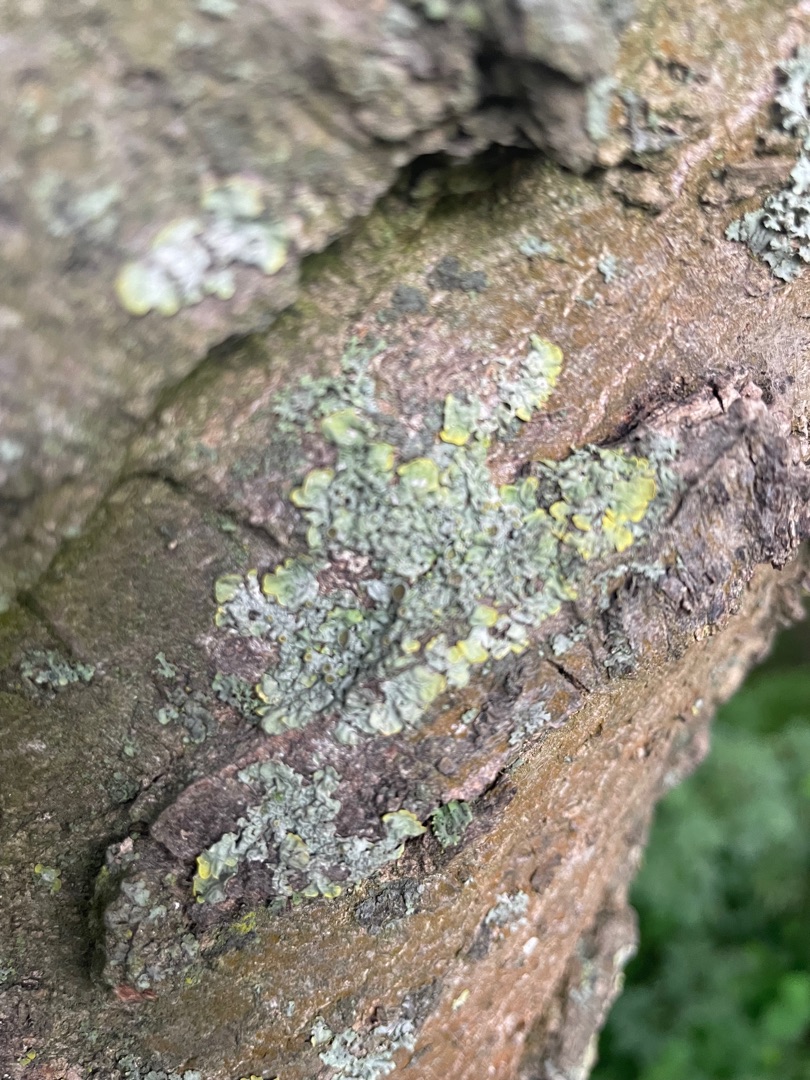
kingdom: Fungi
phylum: Ascomycota
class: Lecanoromycetes
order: Teloschistales
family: Teloschistaceae
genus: Xanthoria
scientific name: Xanthoria parietina
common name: Almindelig væggelav
